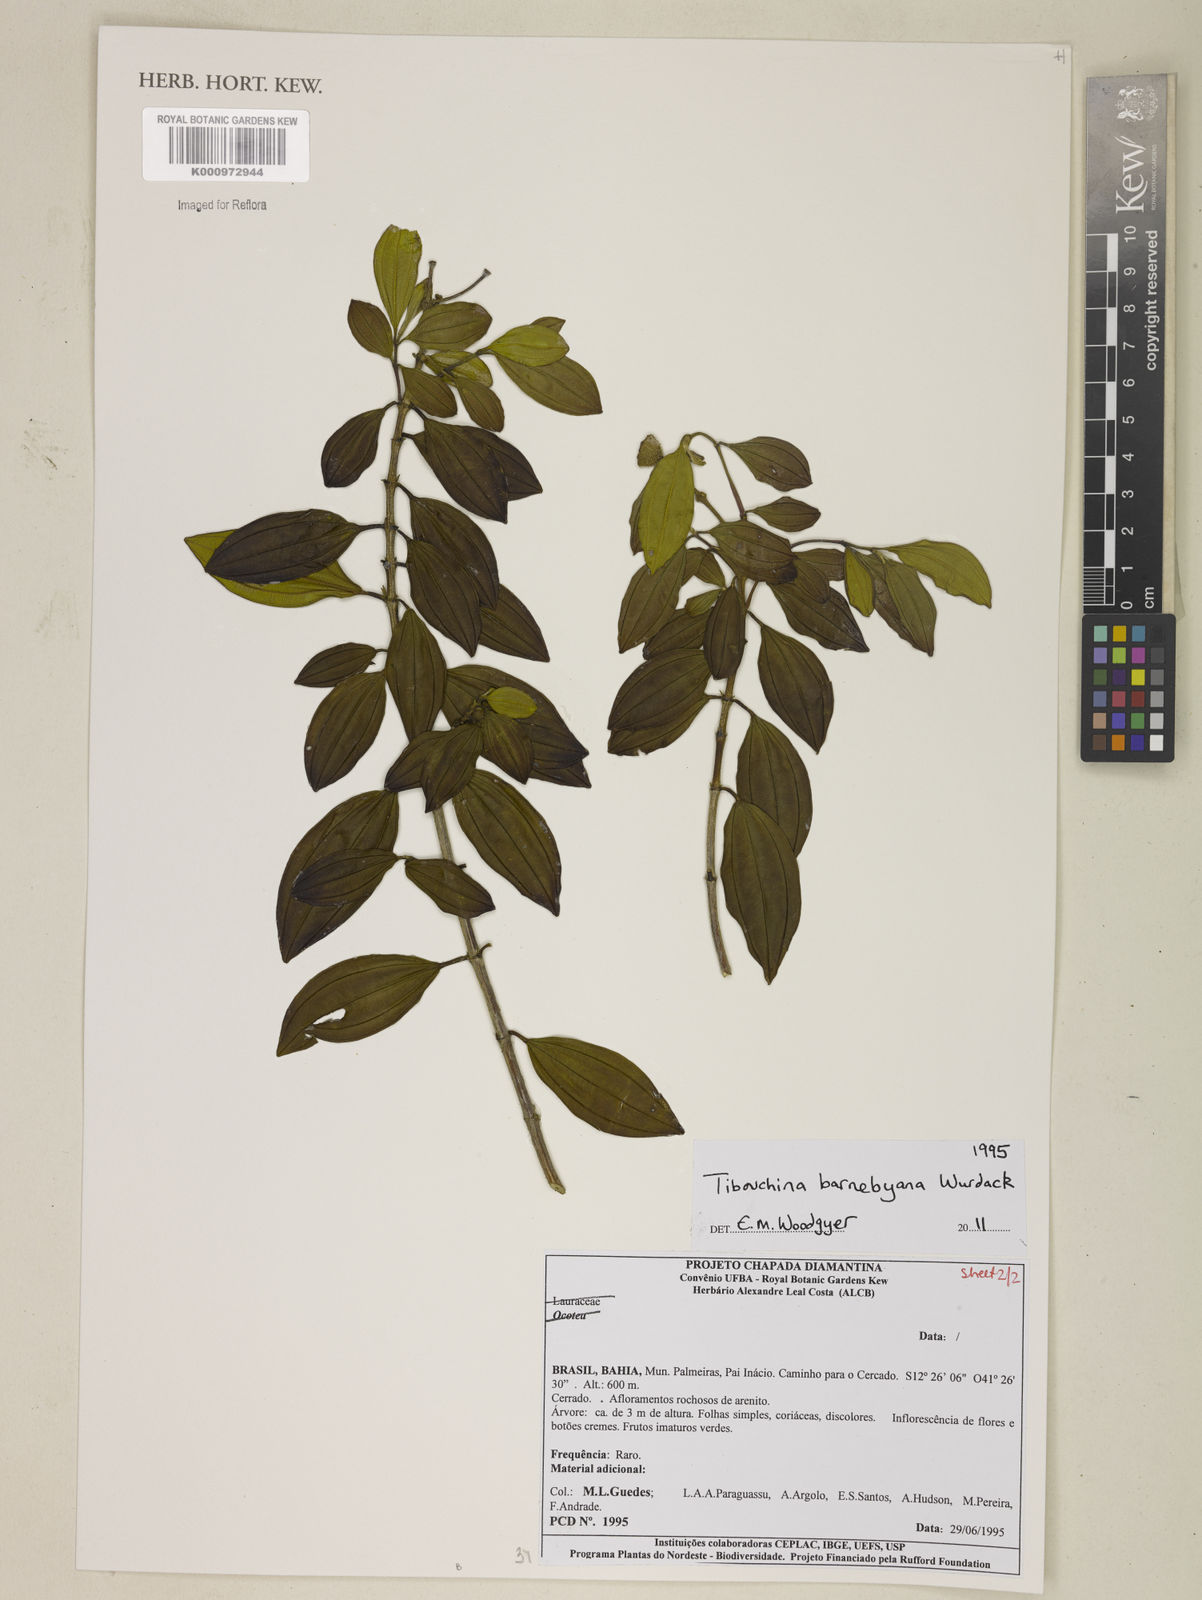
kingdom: Plantae
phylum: Tracheophyta
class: Magnoliopsida
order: Myrtales
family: Melastomataceae
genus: Pleroma
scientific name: Pleroma barnebyanum
